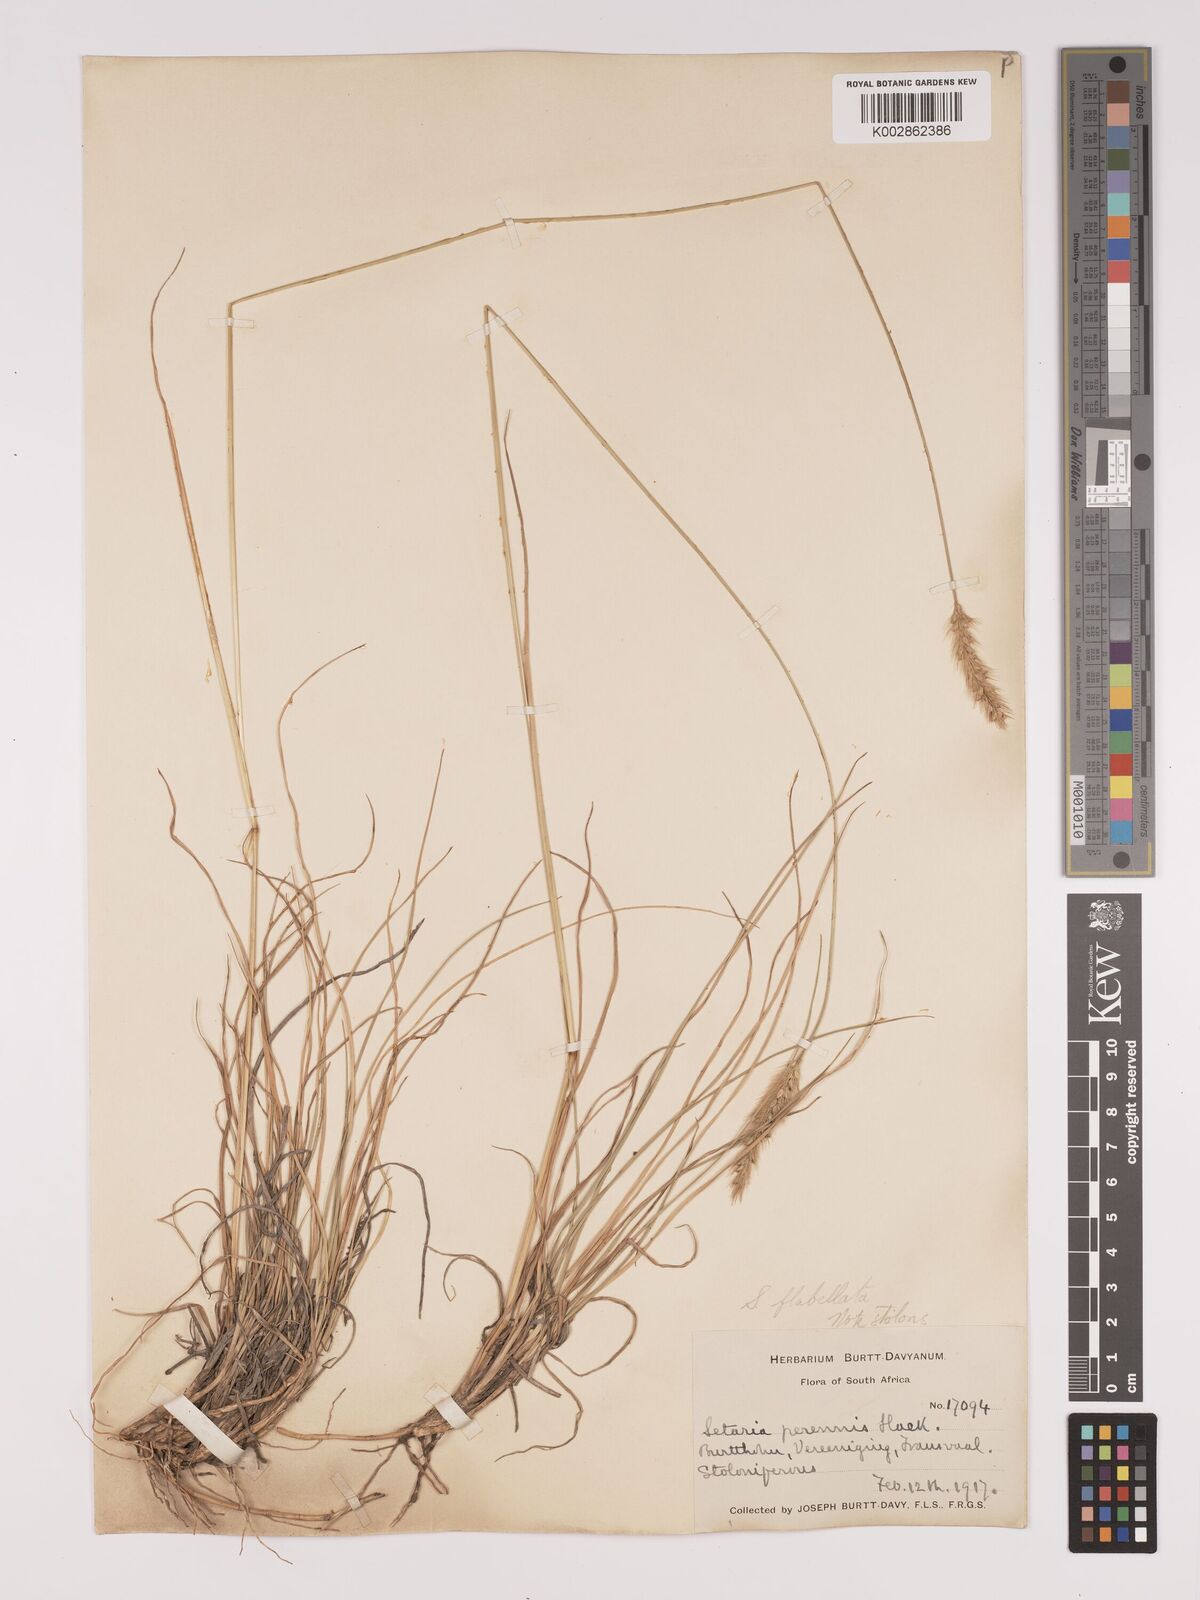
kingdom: Plantae
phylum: Tracheophyta
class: Liliopsida
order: Poales
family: Poaceae
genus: Setaria
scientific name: Setaria sphacelata
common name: African bristlegrass
